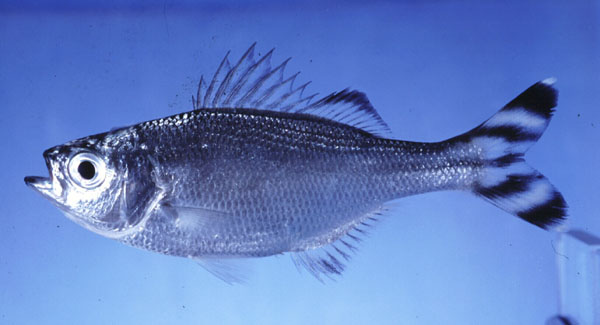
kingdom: Animalia
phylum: Chordata
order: Perciformes
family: Kuhliidae
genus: Kuhlia
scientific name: Kuhlia mugil
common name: Barred flagtail
